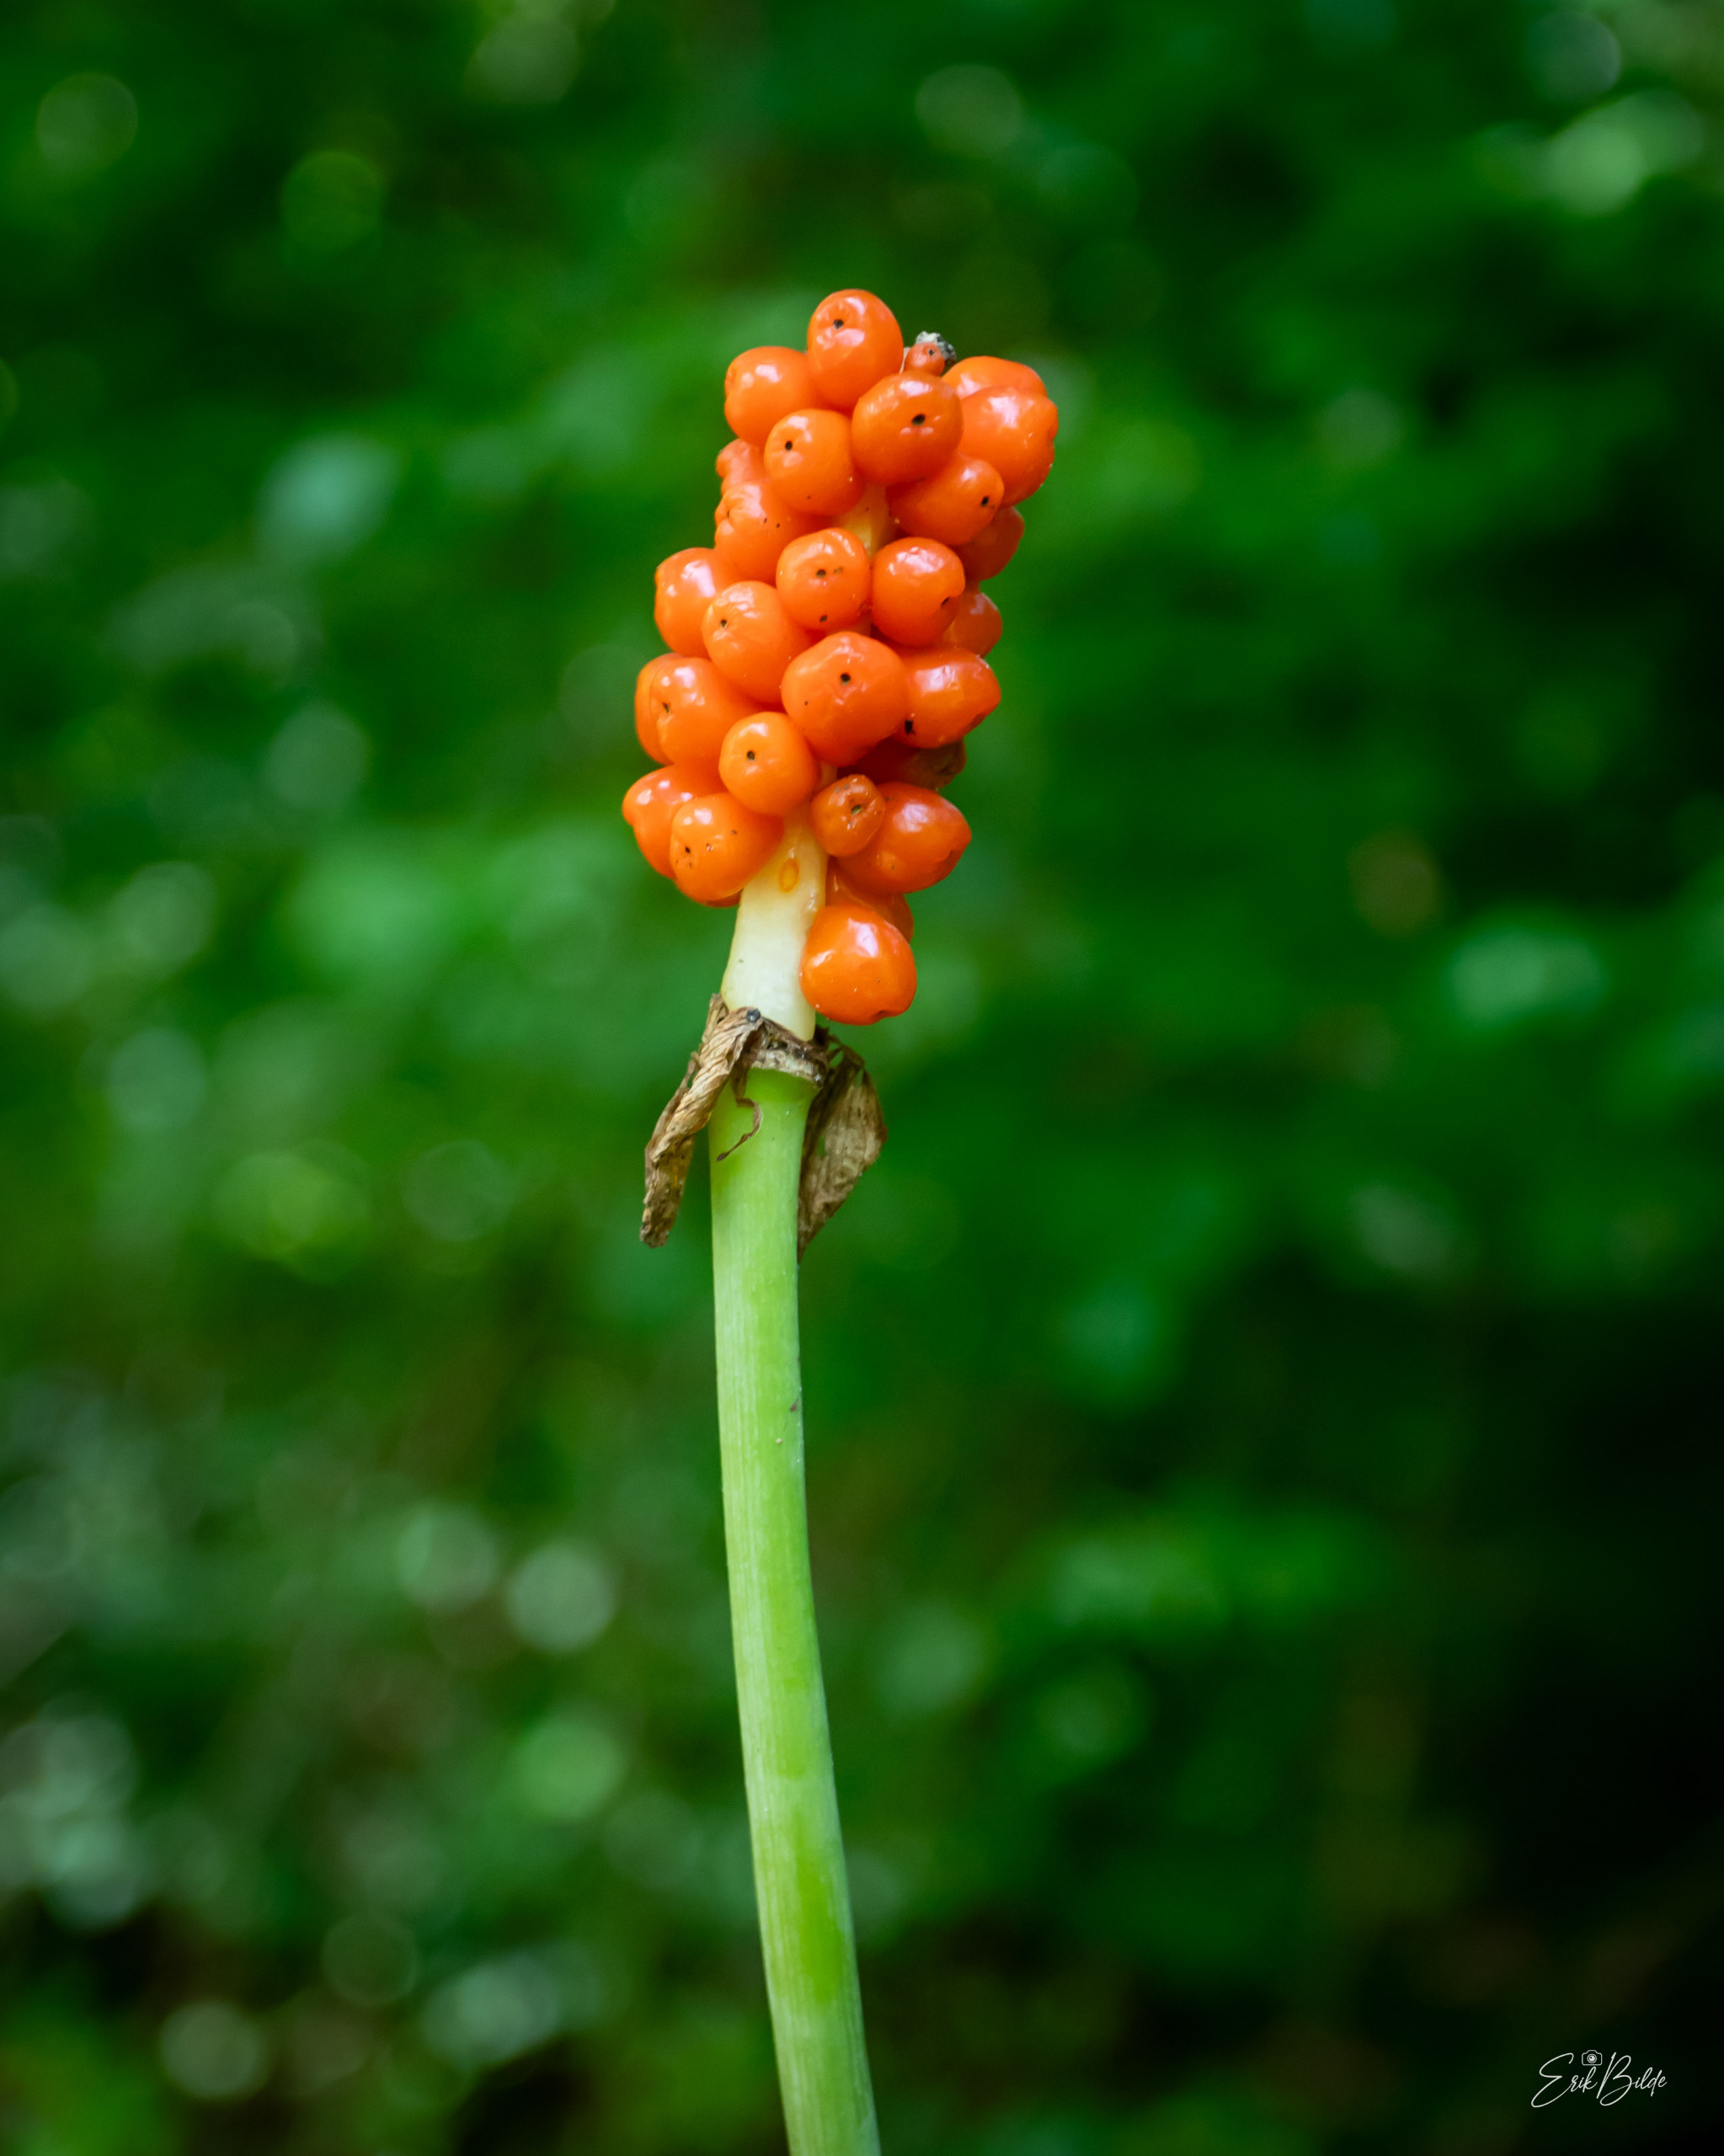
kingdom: Plantae
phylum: Tracheophyta
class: Liliopsida
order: Alismatales
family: Araceae
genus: Arum
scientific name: Arum
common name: Arumslægten
